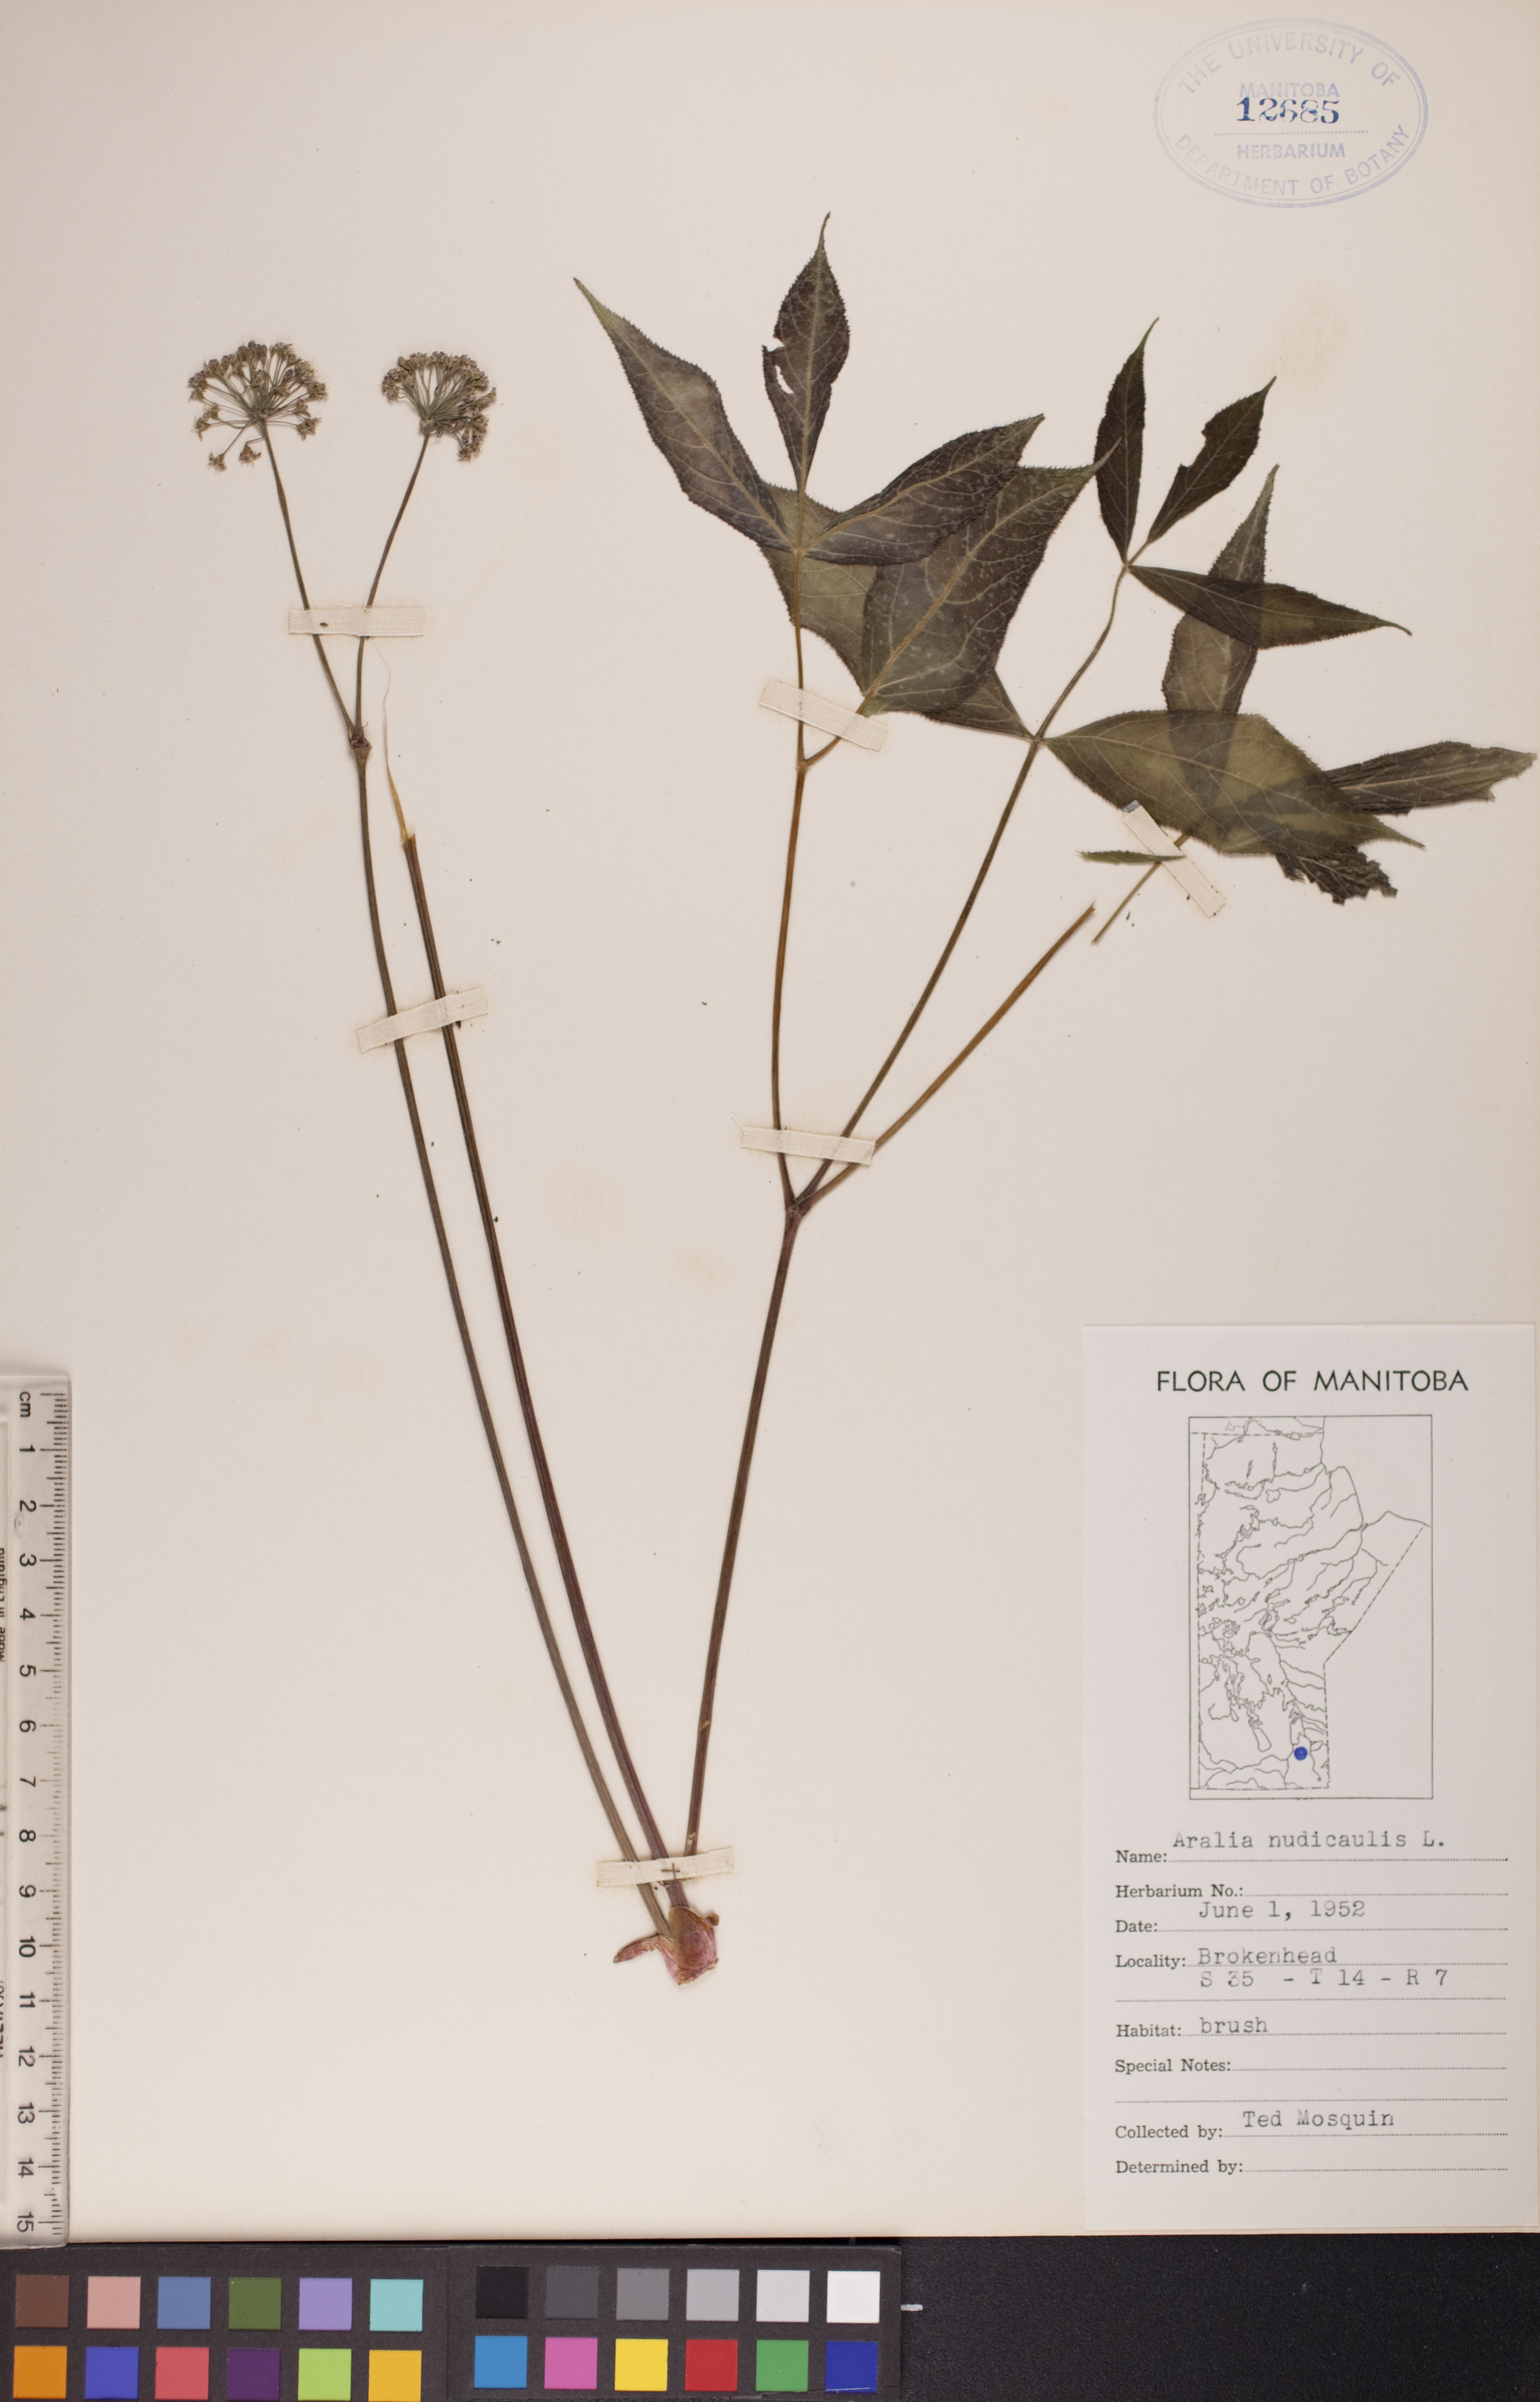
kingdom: Plantae
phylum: Tracheophyta
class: Magnoliopsida
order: Apiales
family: Araliaceae
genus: Aralia
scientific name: Aralia nudicaulis
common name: Wild sarsaparilla
